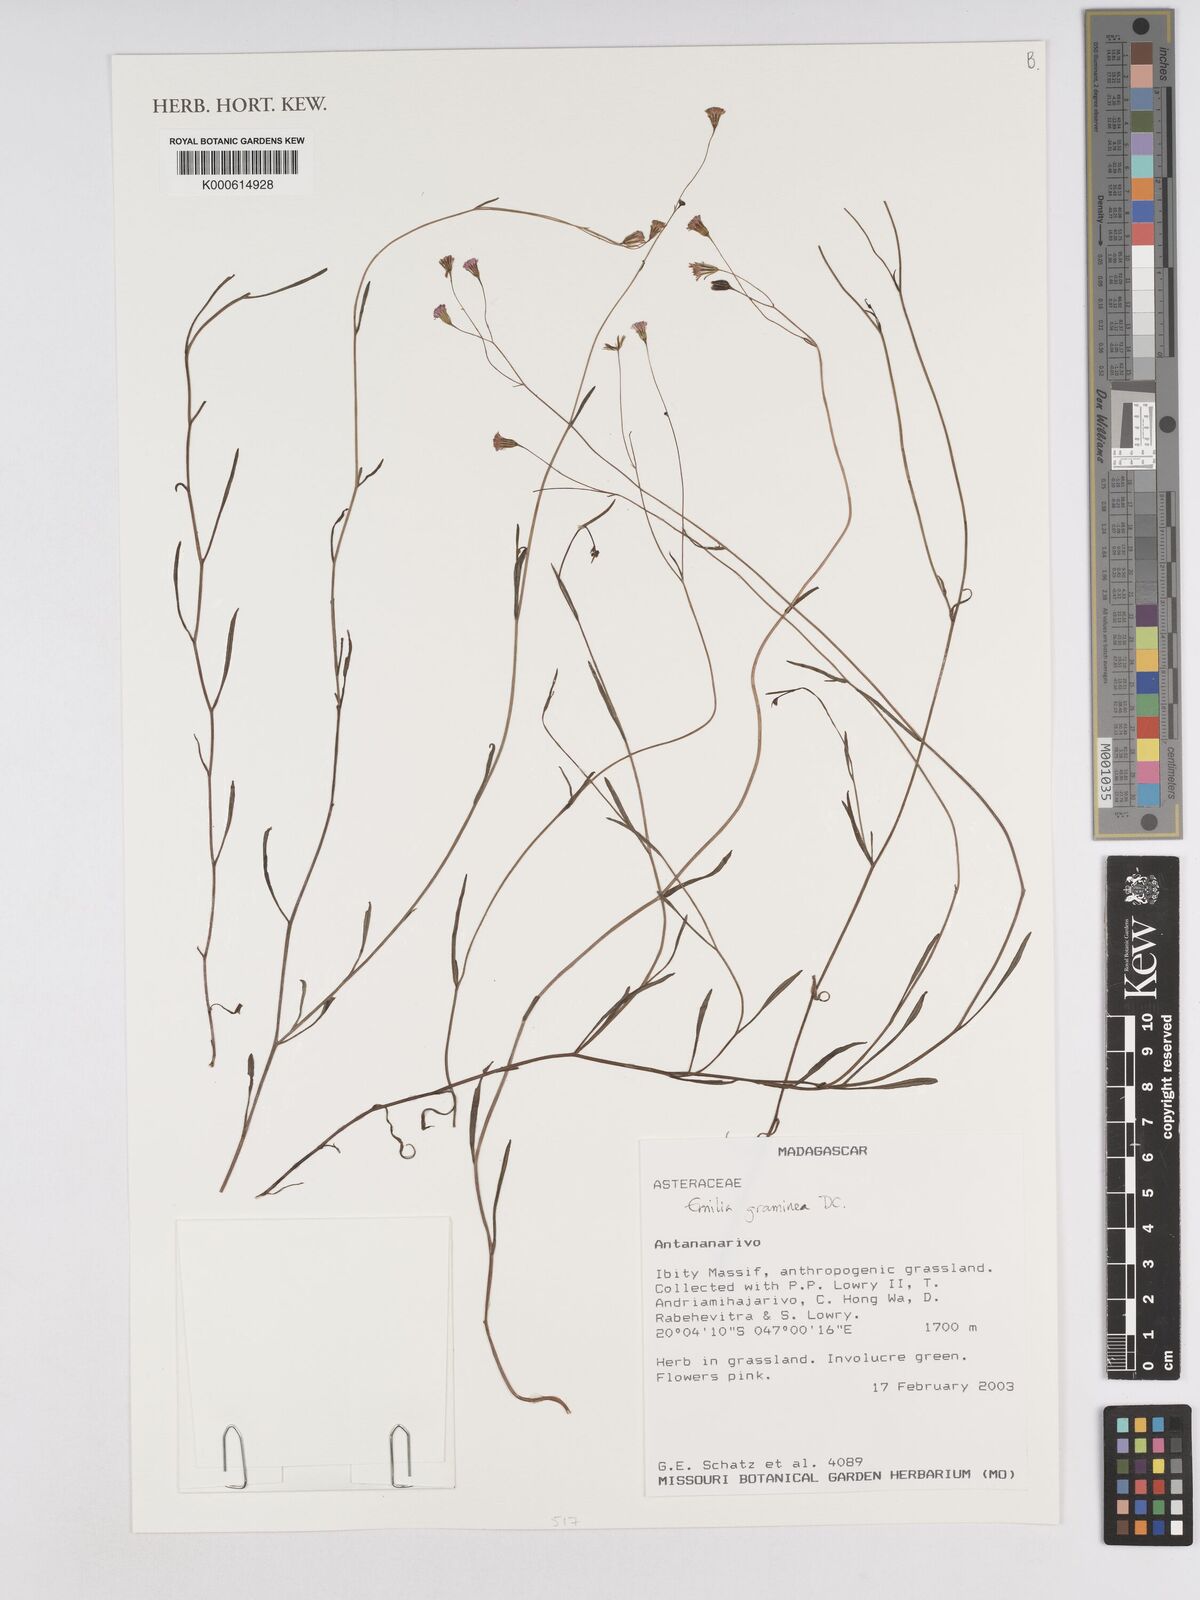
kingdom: Plantae
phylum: Tracheophyta
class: Magnoliopsida
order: Asterales
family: Asteraceae
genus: Emilia
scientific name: Emilia graminea
